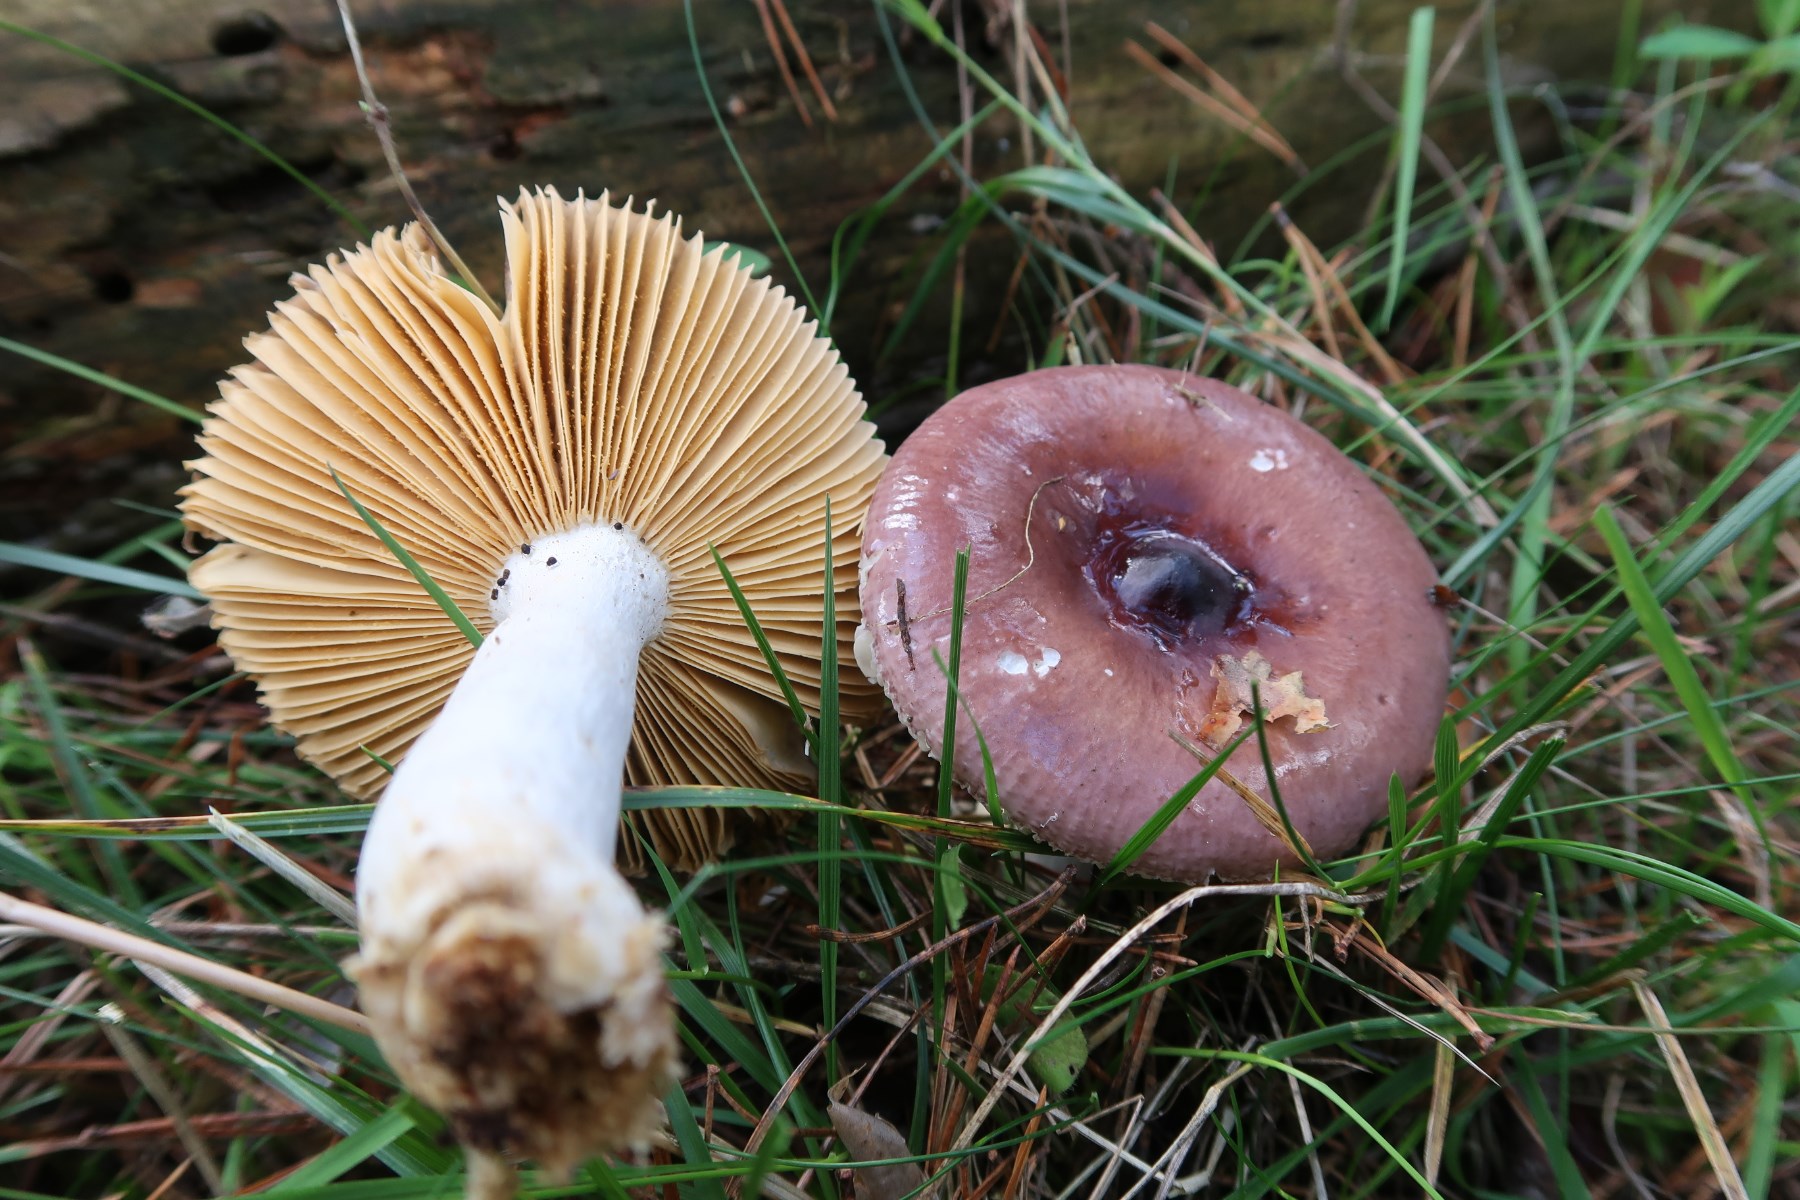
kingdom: Fungi
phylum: Basidiomycota
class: Agaricomycetes
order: Russulales
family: Russulaceae
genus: Russula
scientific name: Russula caerulea
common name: puklet skørhat
